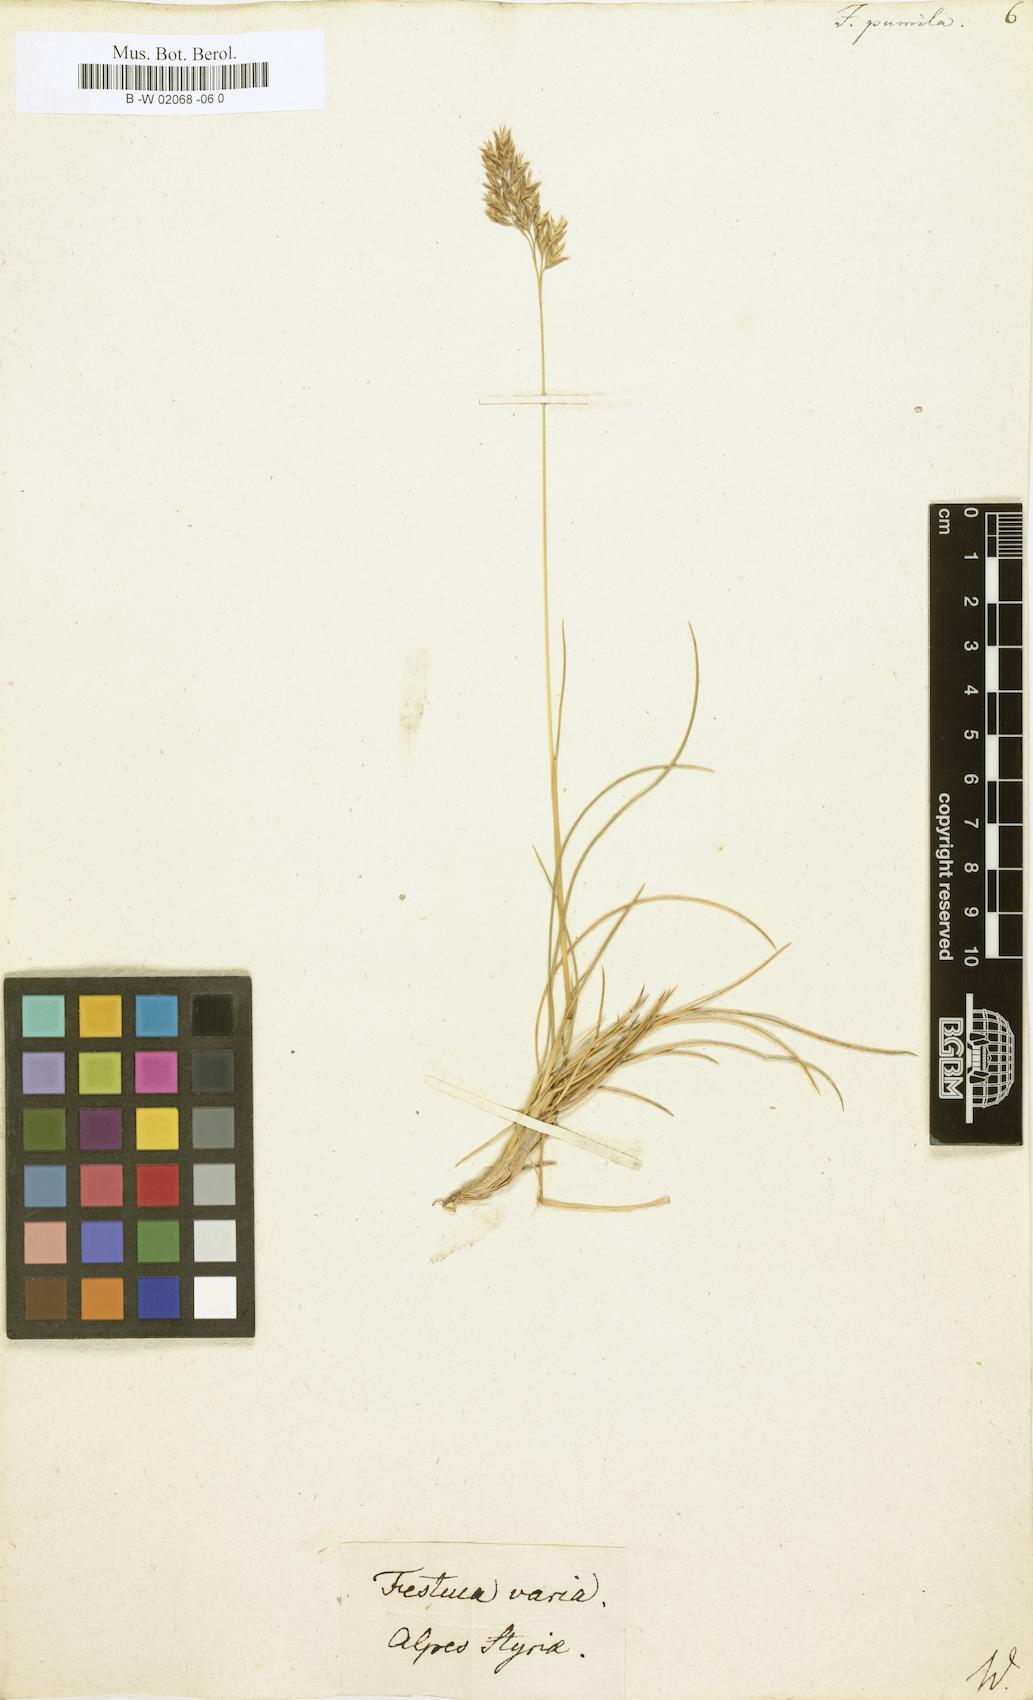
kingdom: Plantae
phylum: Tracheophyta
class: Liliopsida
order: Poales
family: Poaceae
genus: Festuca
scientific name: Festuca
